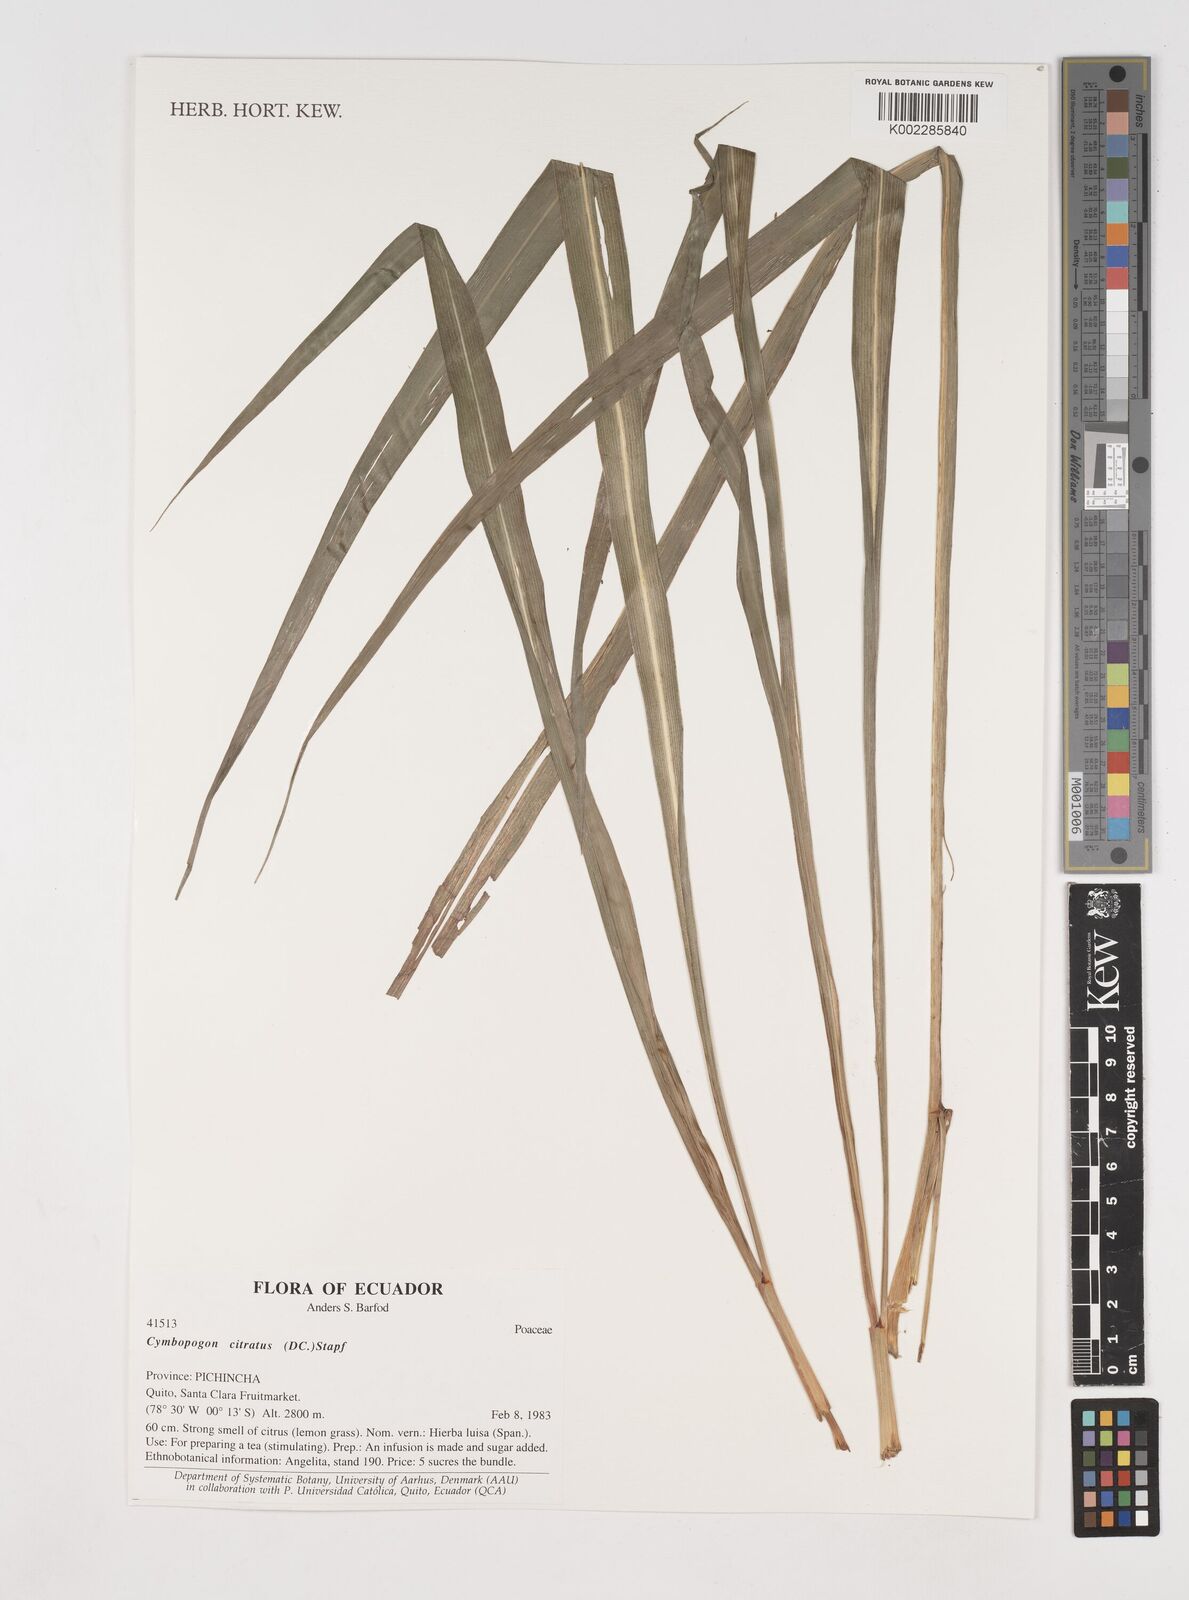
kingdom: Plantae
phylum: Tracheophyta
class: Liliopsida
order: Poales
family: Poaceae
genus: Cymbopogon
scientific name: Cymbopogon citratus
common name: Lemon grass
